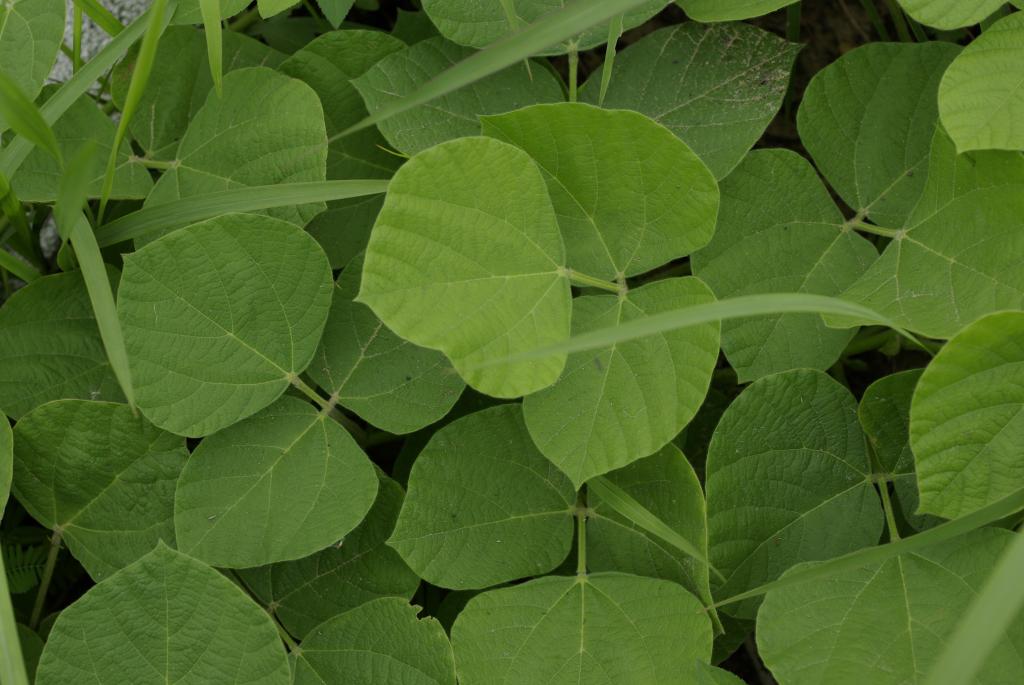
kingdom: Plantae
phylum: Tracheophyta
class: Magnoliopsida
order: Fabales
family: Fabaceae
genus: Rhynchosia
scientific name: Rhynchosia rothii
